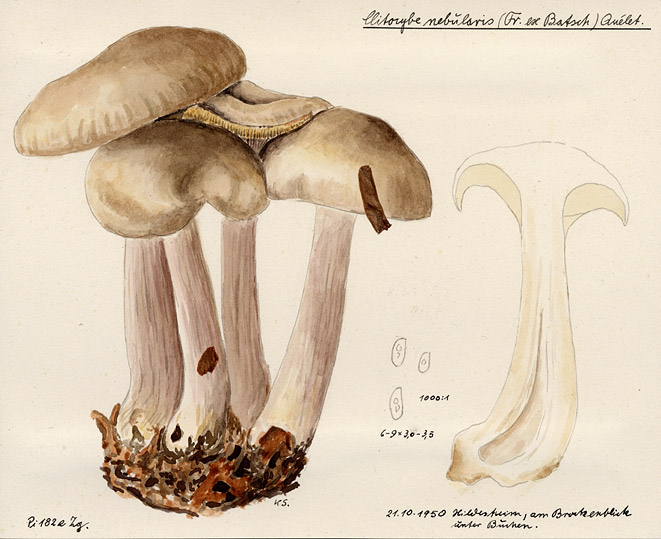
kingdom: Fungi
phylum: Basidiomycota
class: Agaricomycetes
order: Agaricales
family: Tricholomataceae
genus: Clitocybe
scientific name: Clitocybe nebularis
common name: Clouded agaric
